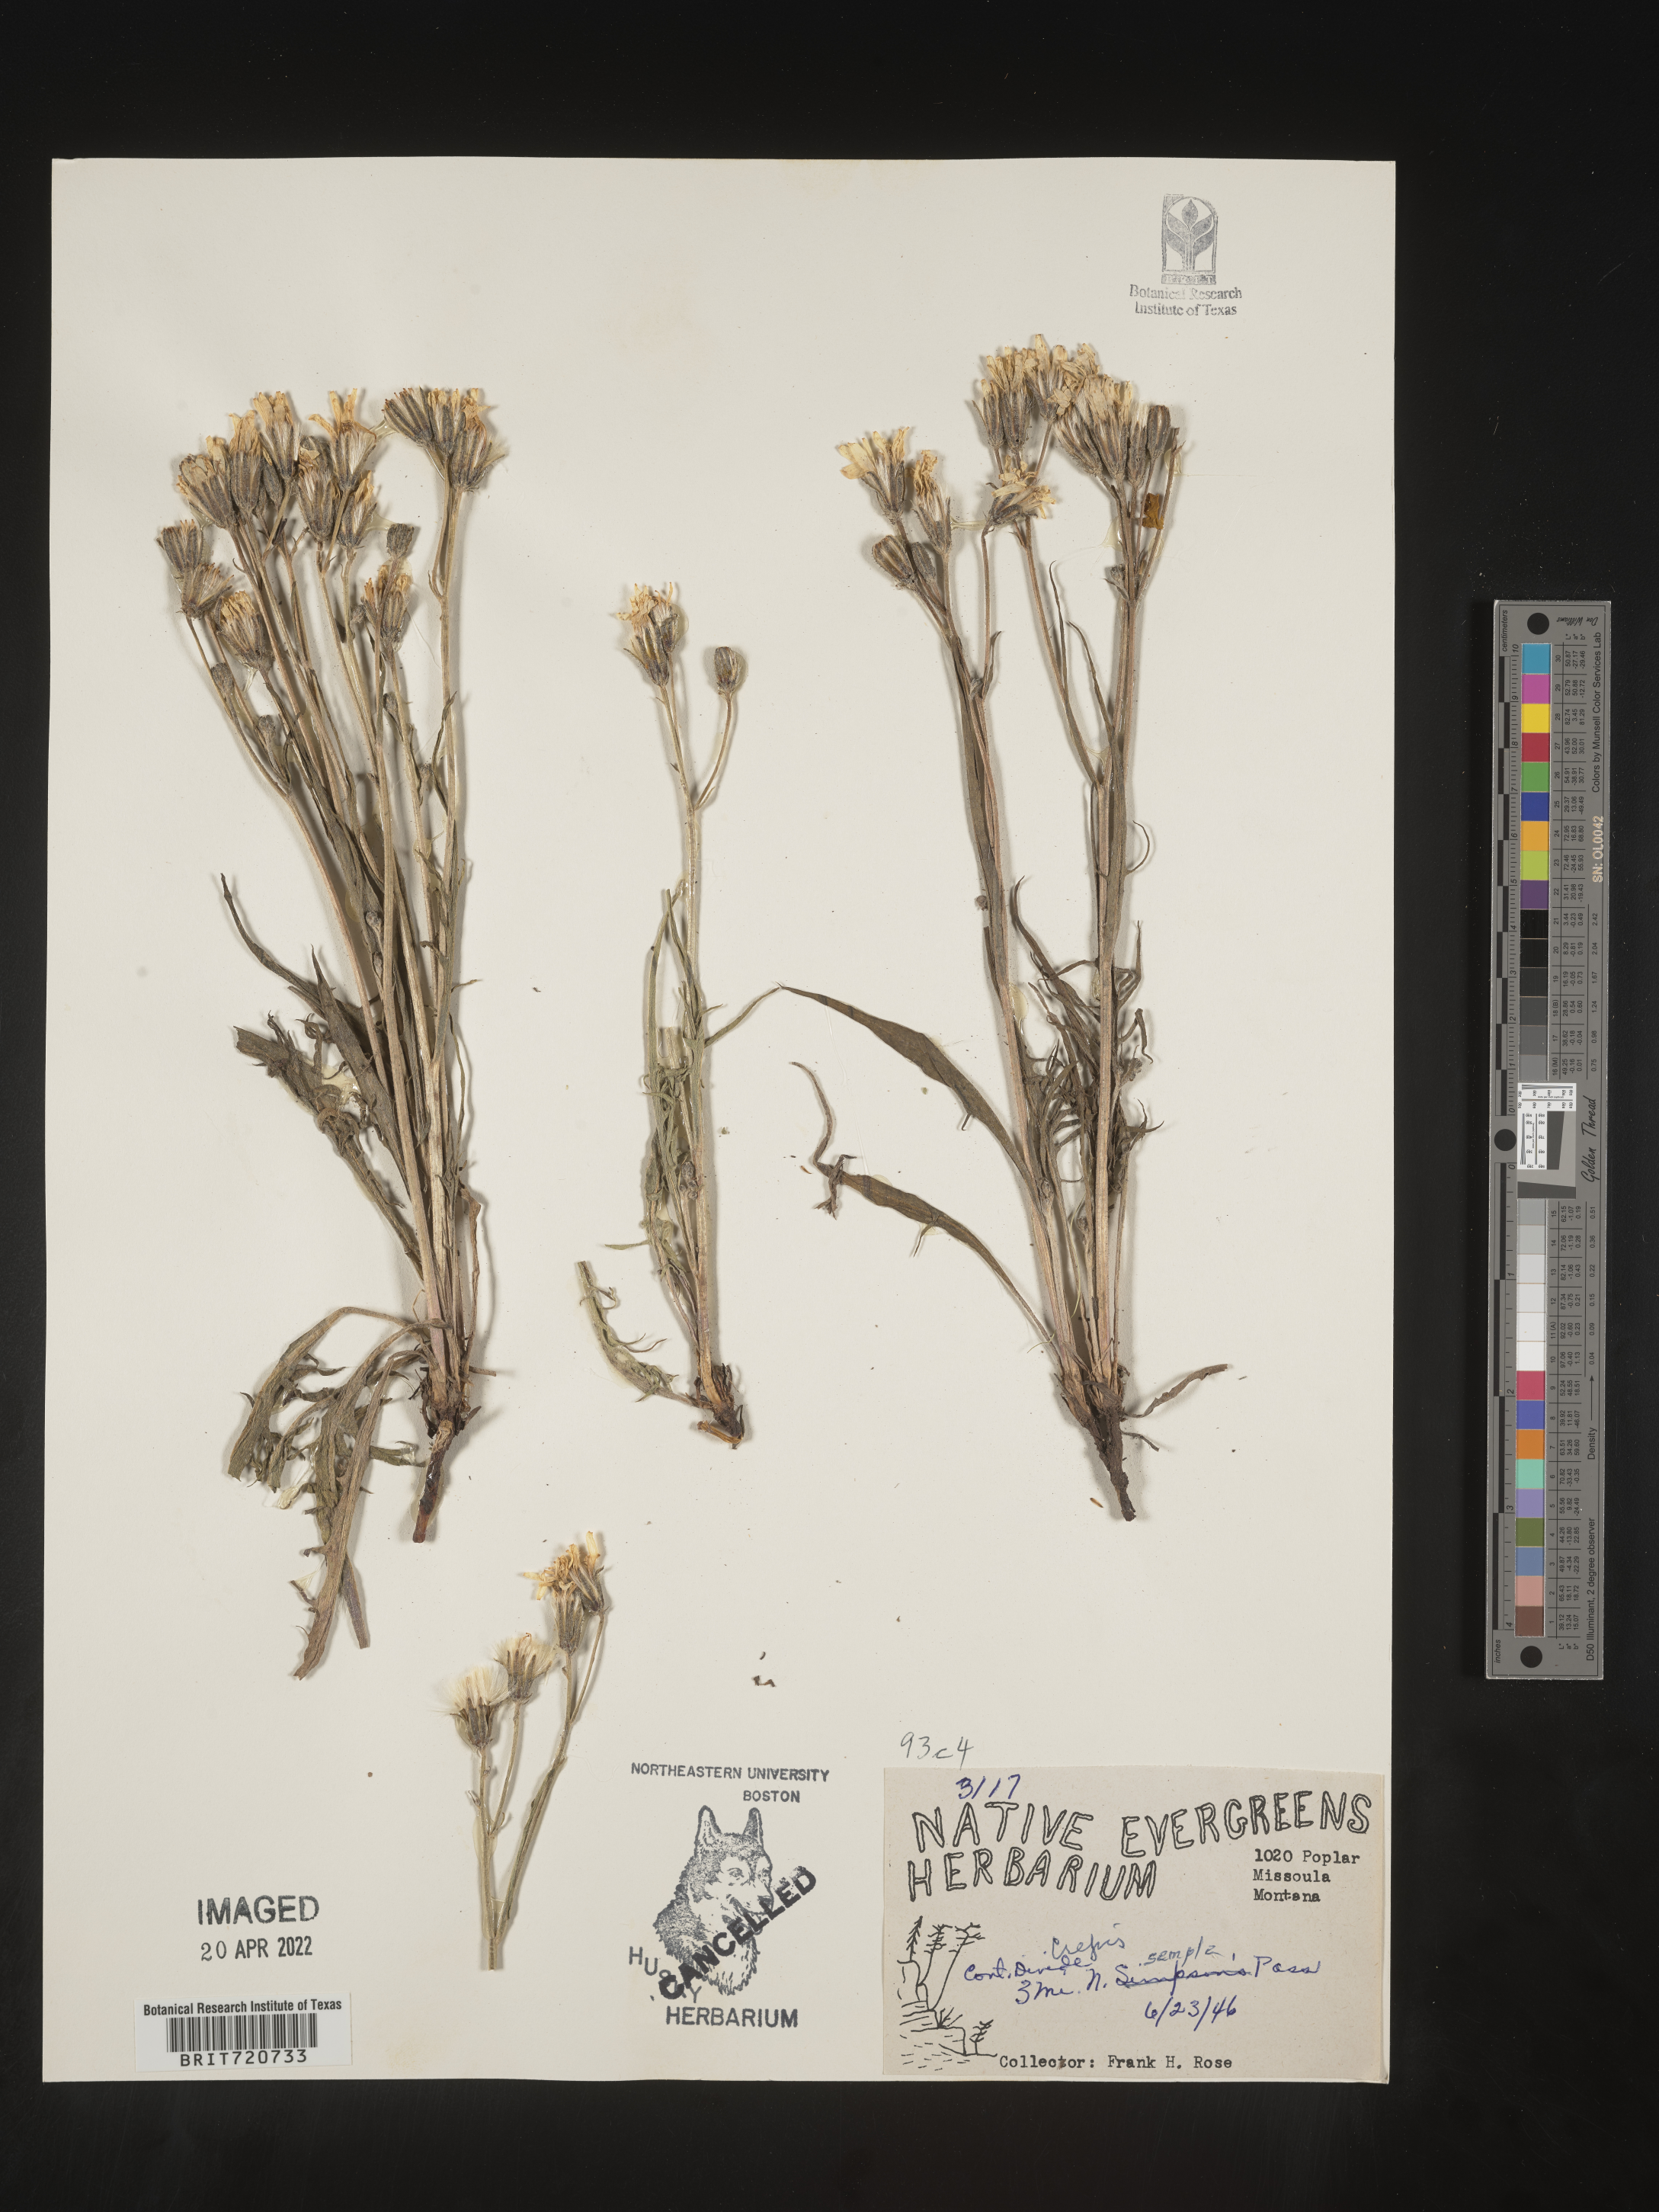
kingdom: Plantae
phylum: Tracheophyta
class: Magnoliopsida
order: Asterales
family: Asteraceae
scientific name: Asteraceae
